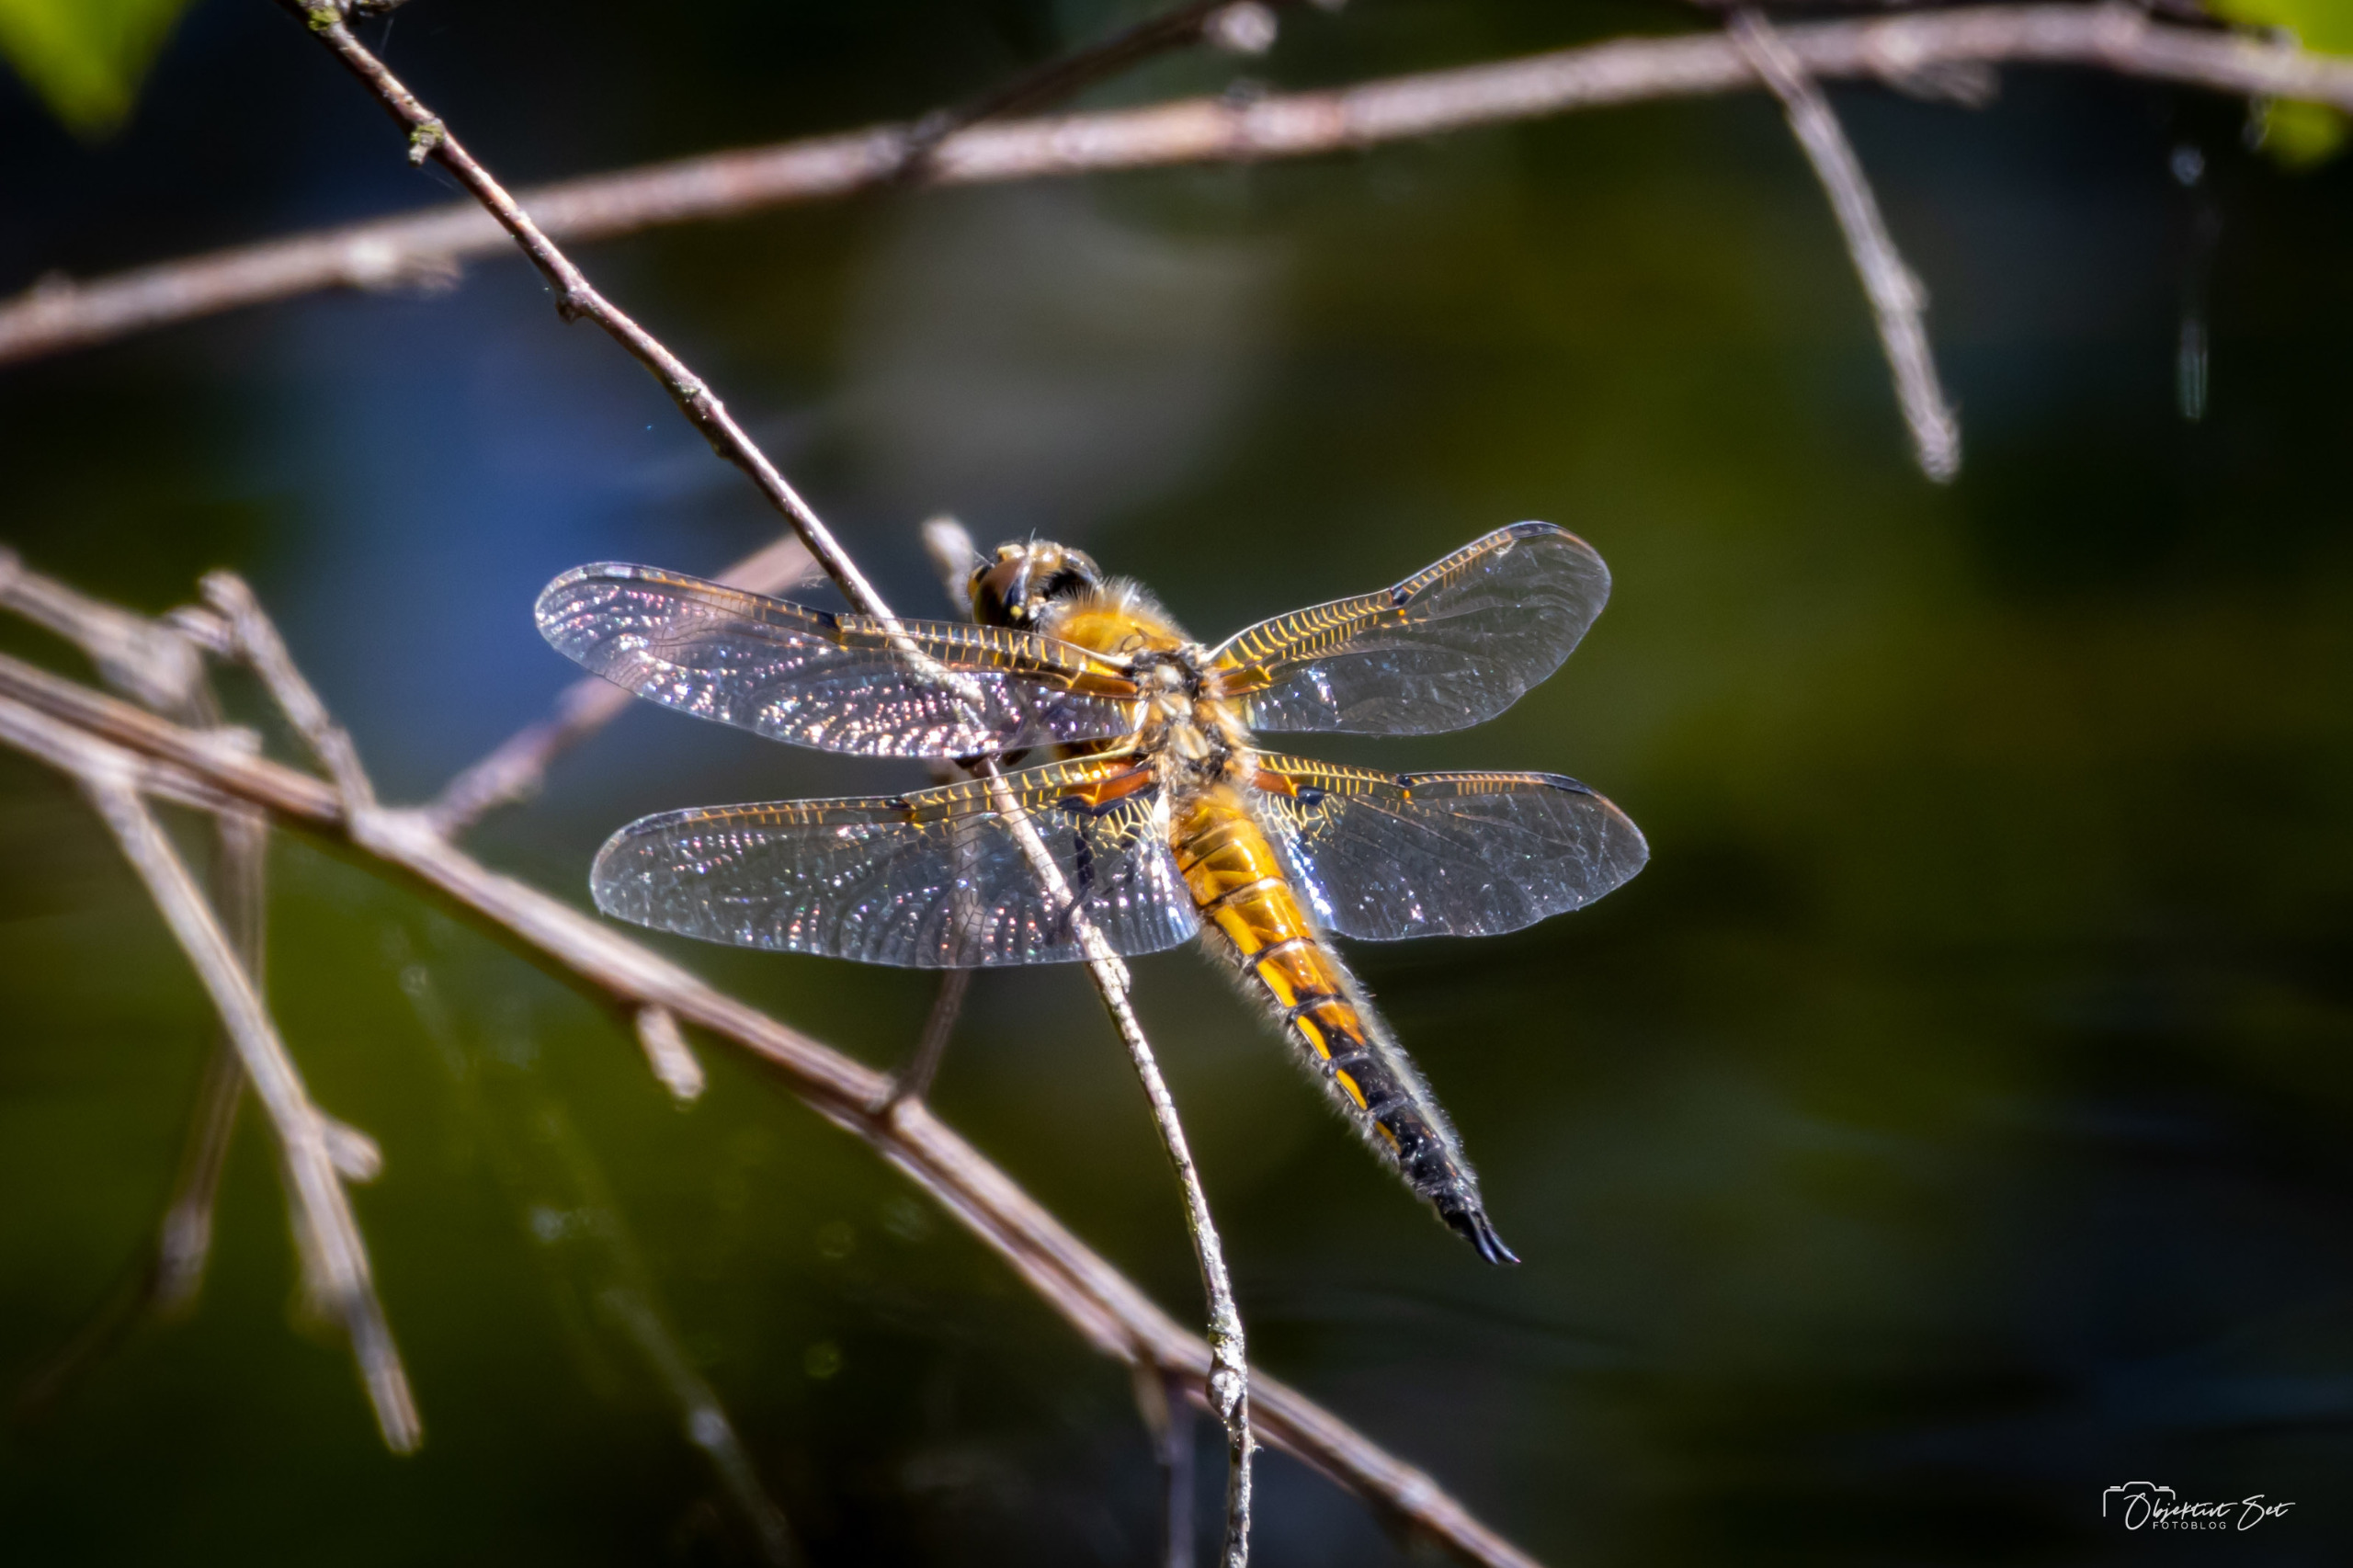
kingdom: Animalia
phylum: Arthropoda
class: Insecta
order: Odonata
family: Libellulidae
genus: Libellula
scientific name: Libellula quadrimaculata
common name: Fireplettet libel
